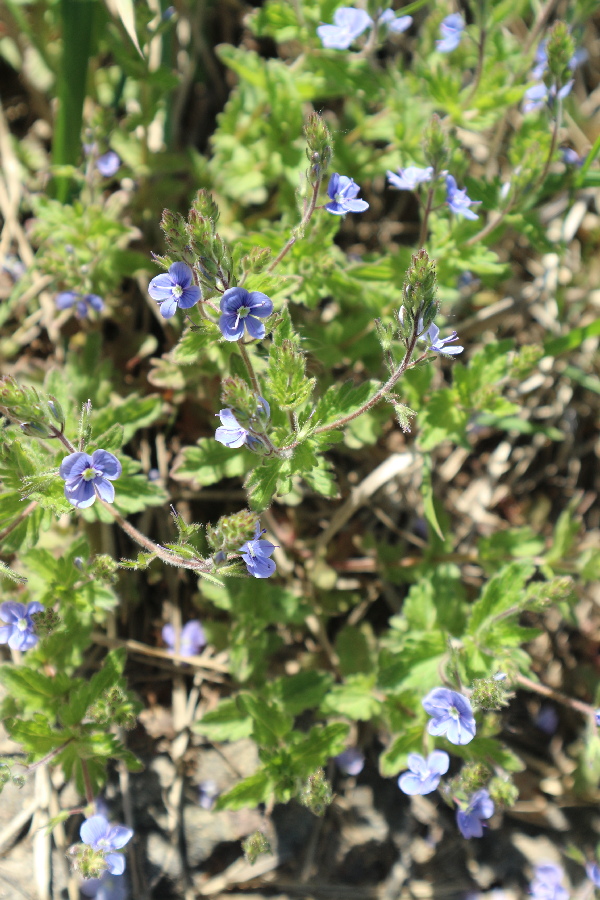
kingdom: Plantae
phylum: Tracheophyta
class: Magnoliopsida
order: Lamiales
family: Plantaginaceae
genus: Veronica
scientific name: Veronica chamaedrys
